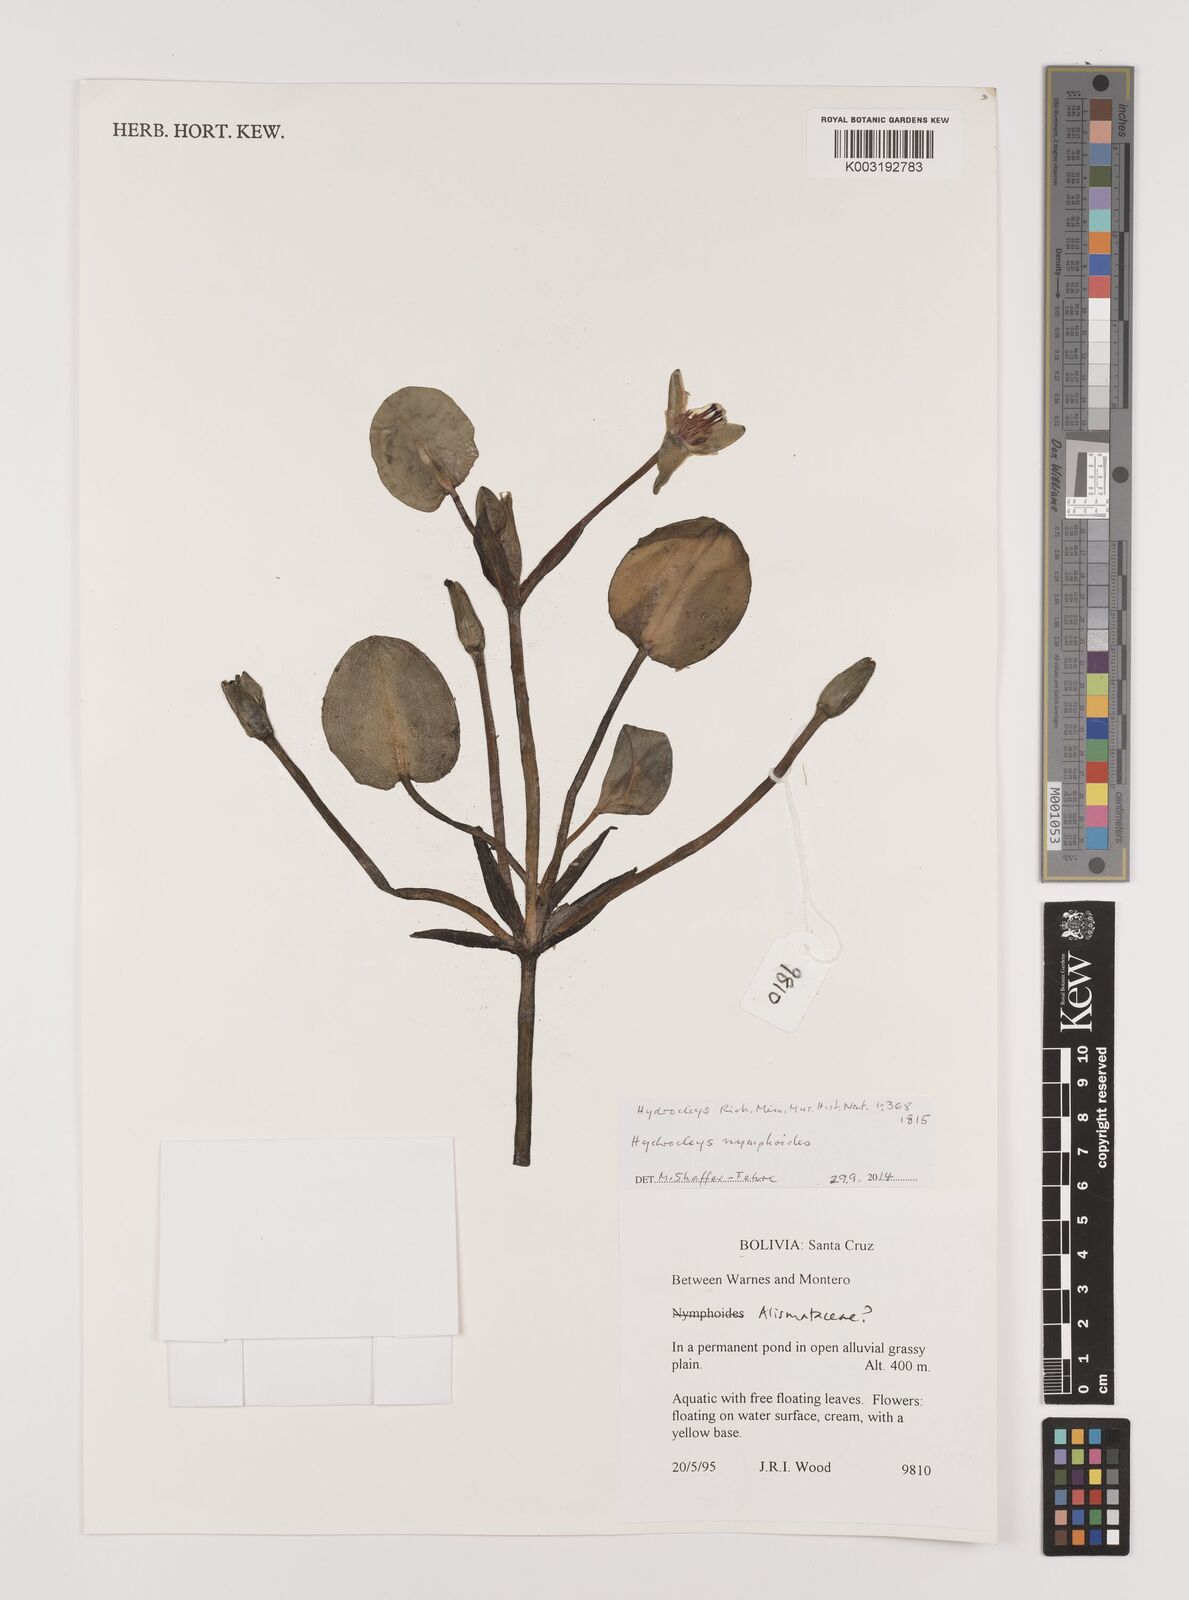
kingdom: Plantae
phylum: Tracheophyta
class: Liliopsida
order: Alismatales
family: Alismataceae
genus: Hydrocleys
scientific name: Hydrocleys nymphoides
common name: Water-poppy
